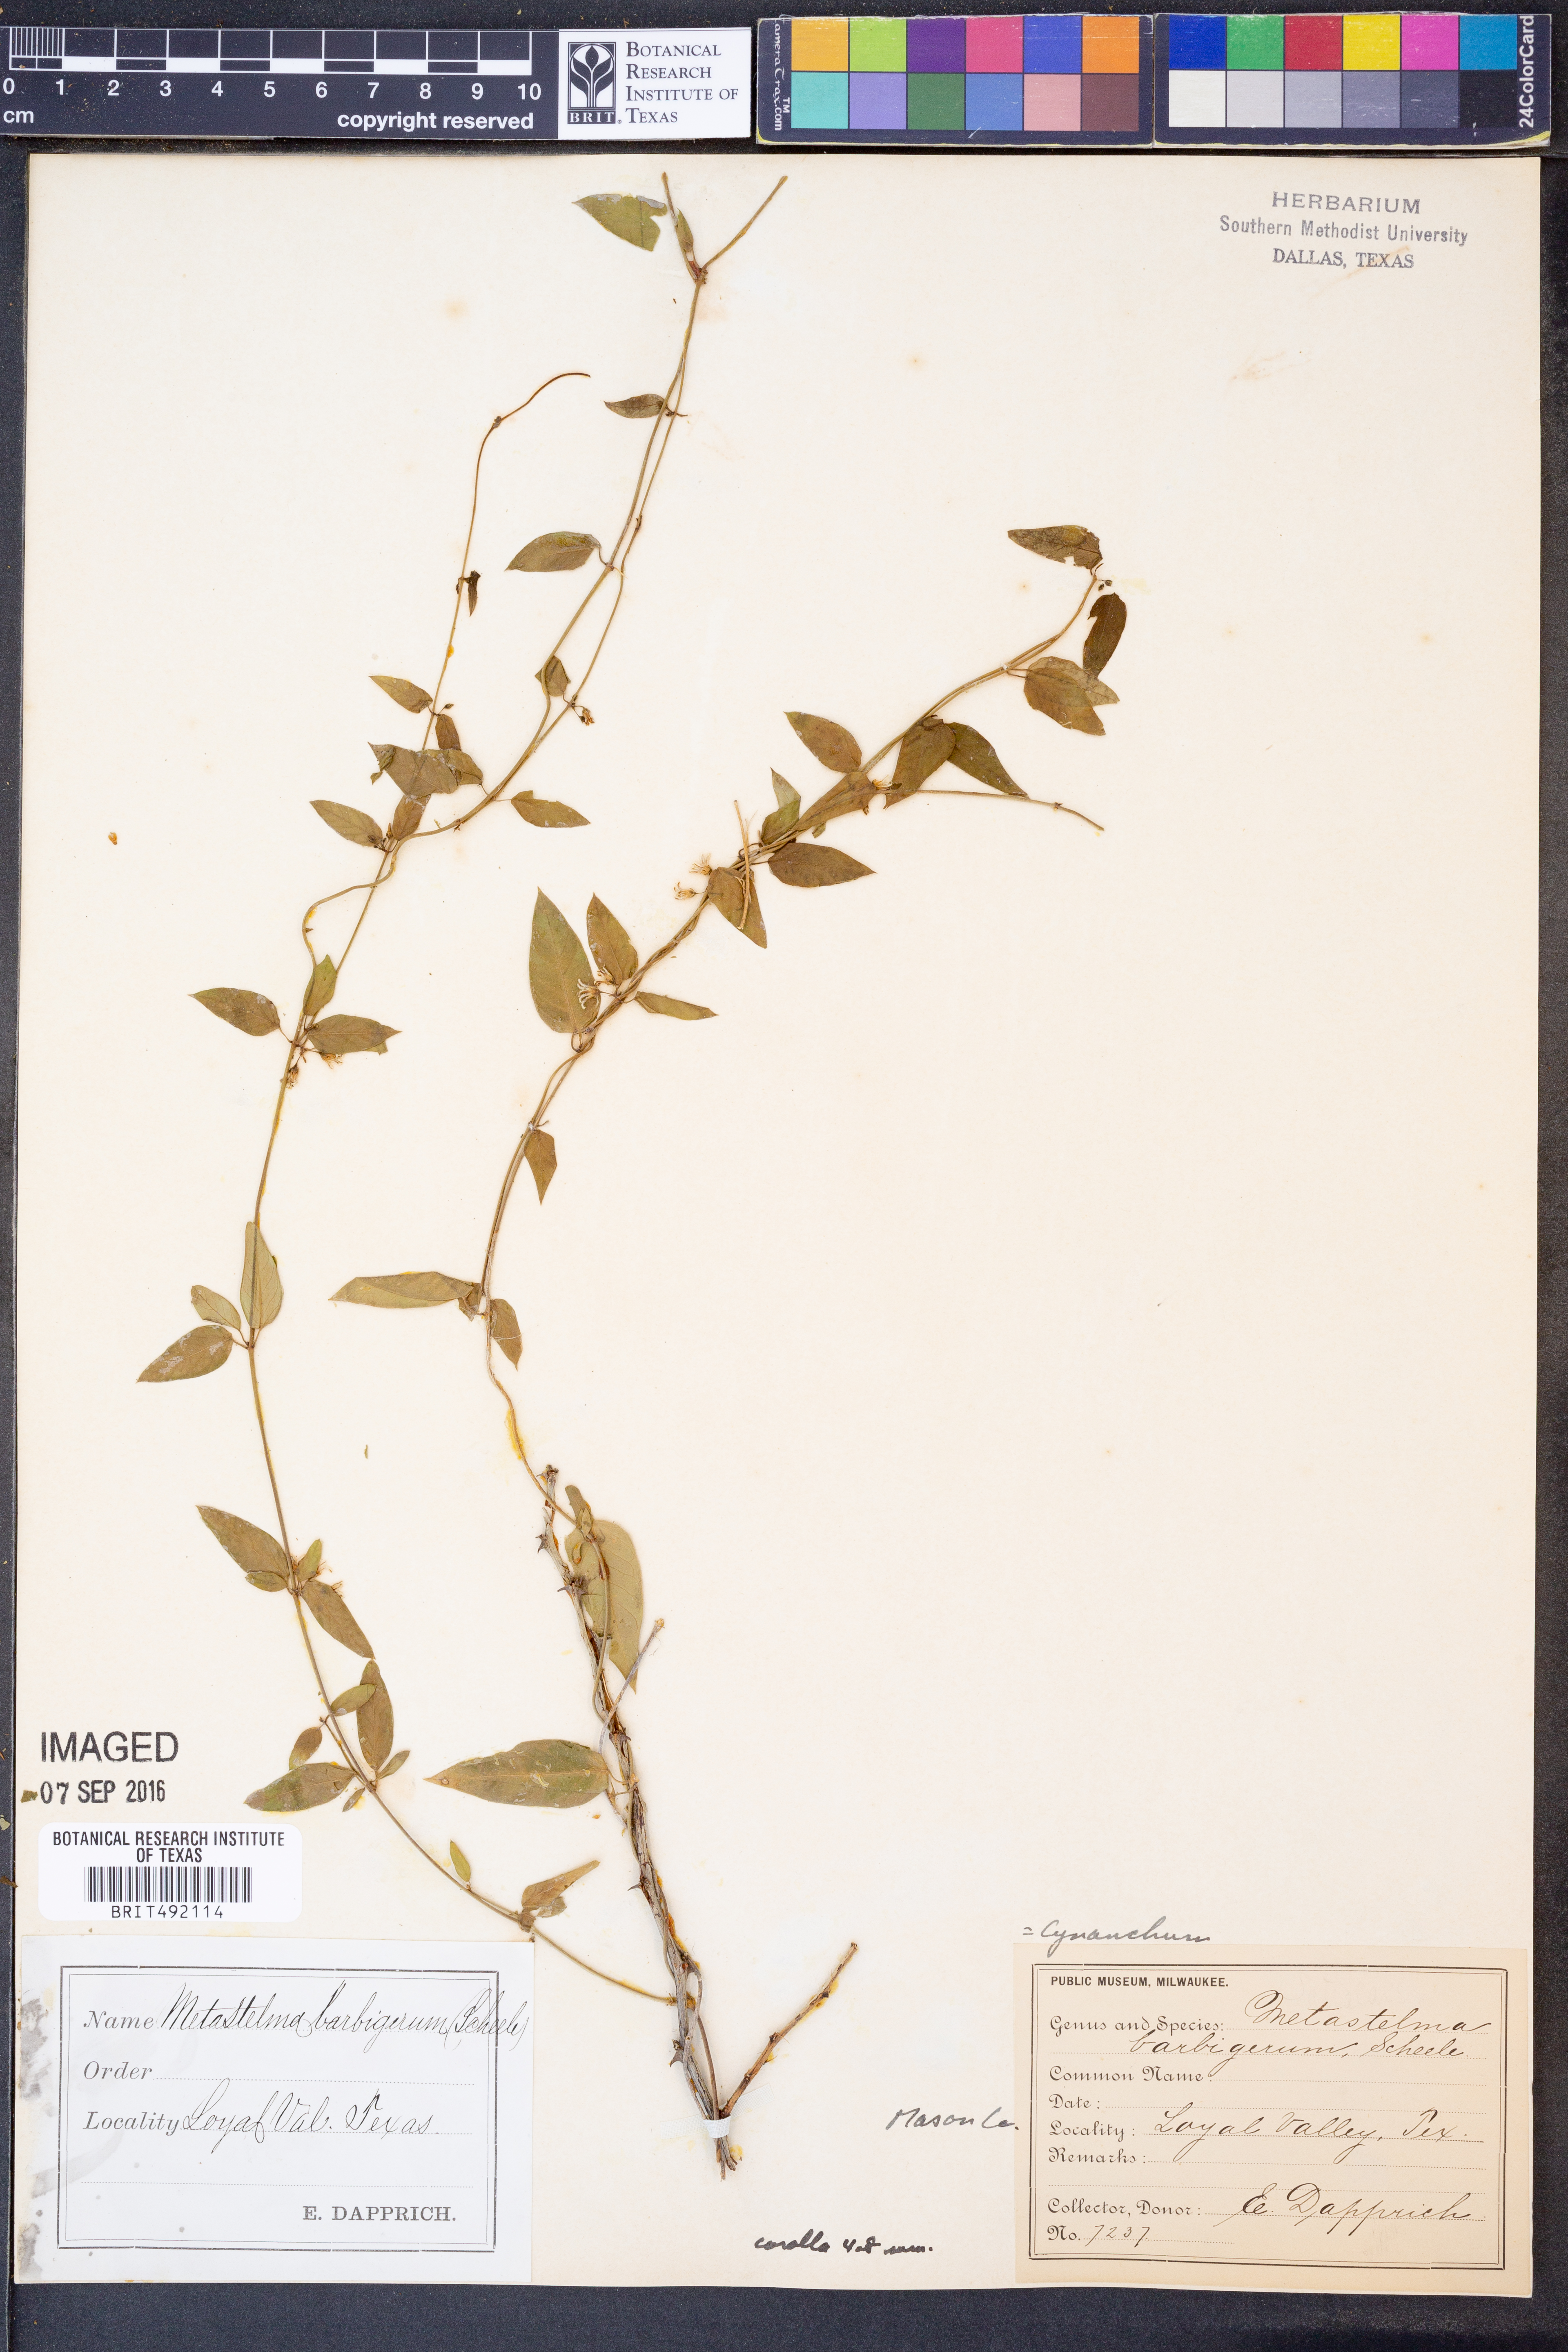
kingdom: Plantae
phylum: Tracheophyta
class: Magnoliopsida
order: Gentianales
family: Apocynaceae
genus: Metastelma
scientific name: Metastelma barbigerum
